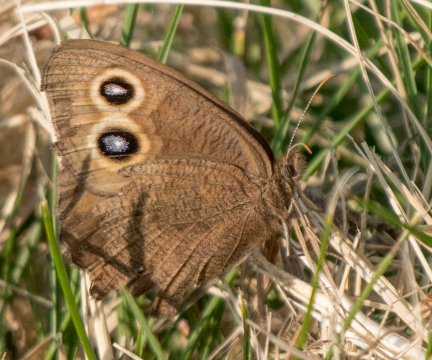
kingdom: Animalia
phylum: Arthropoda
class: Insecta
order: Lepidoptera
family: Nymphalidae
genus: Cercyonis
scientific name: Cercyonis pegala
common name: Common Wood-Nymph
